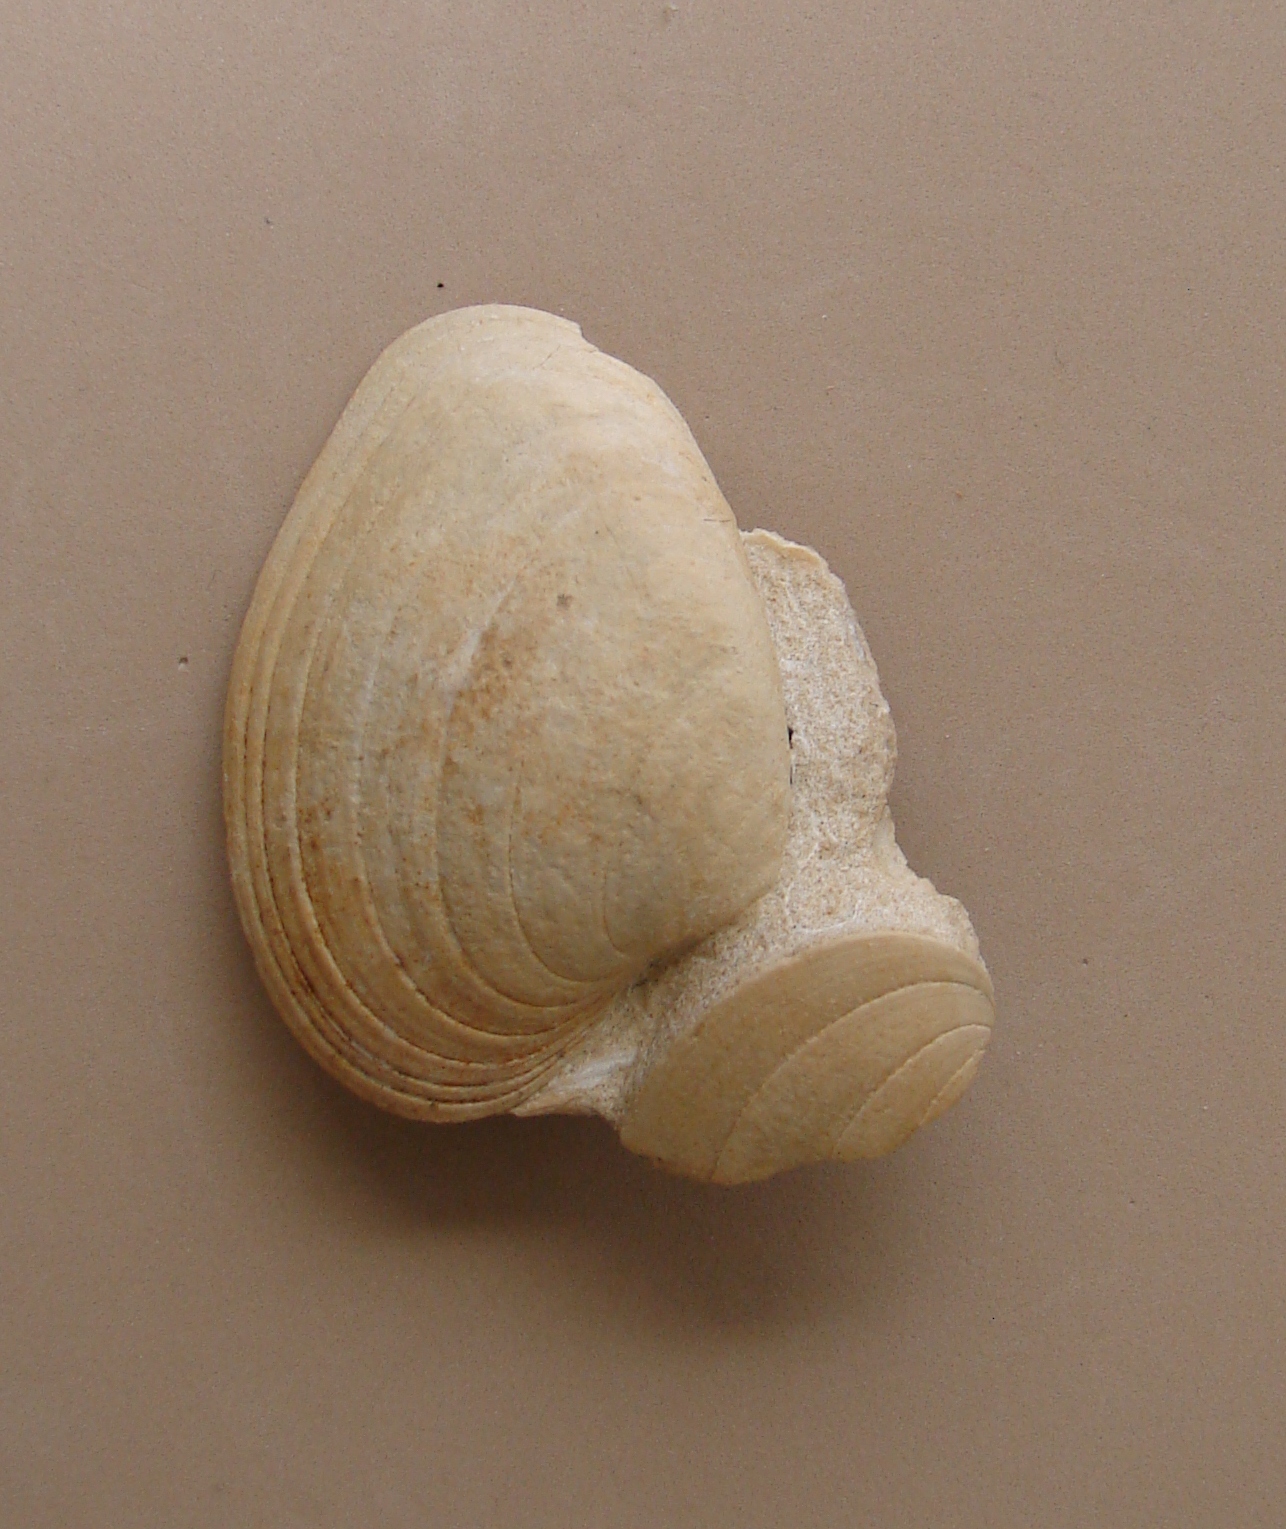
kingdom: Animalia
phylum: Mollusca
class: Bivalvia
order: Carditida
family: Cardiniidae
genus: Cardinia
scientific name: Cardinia
